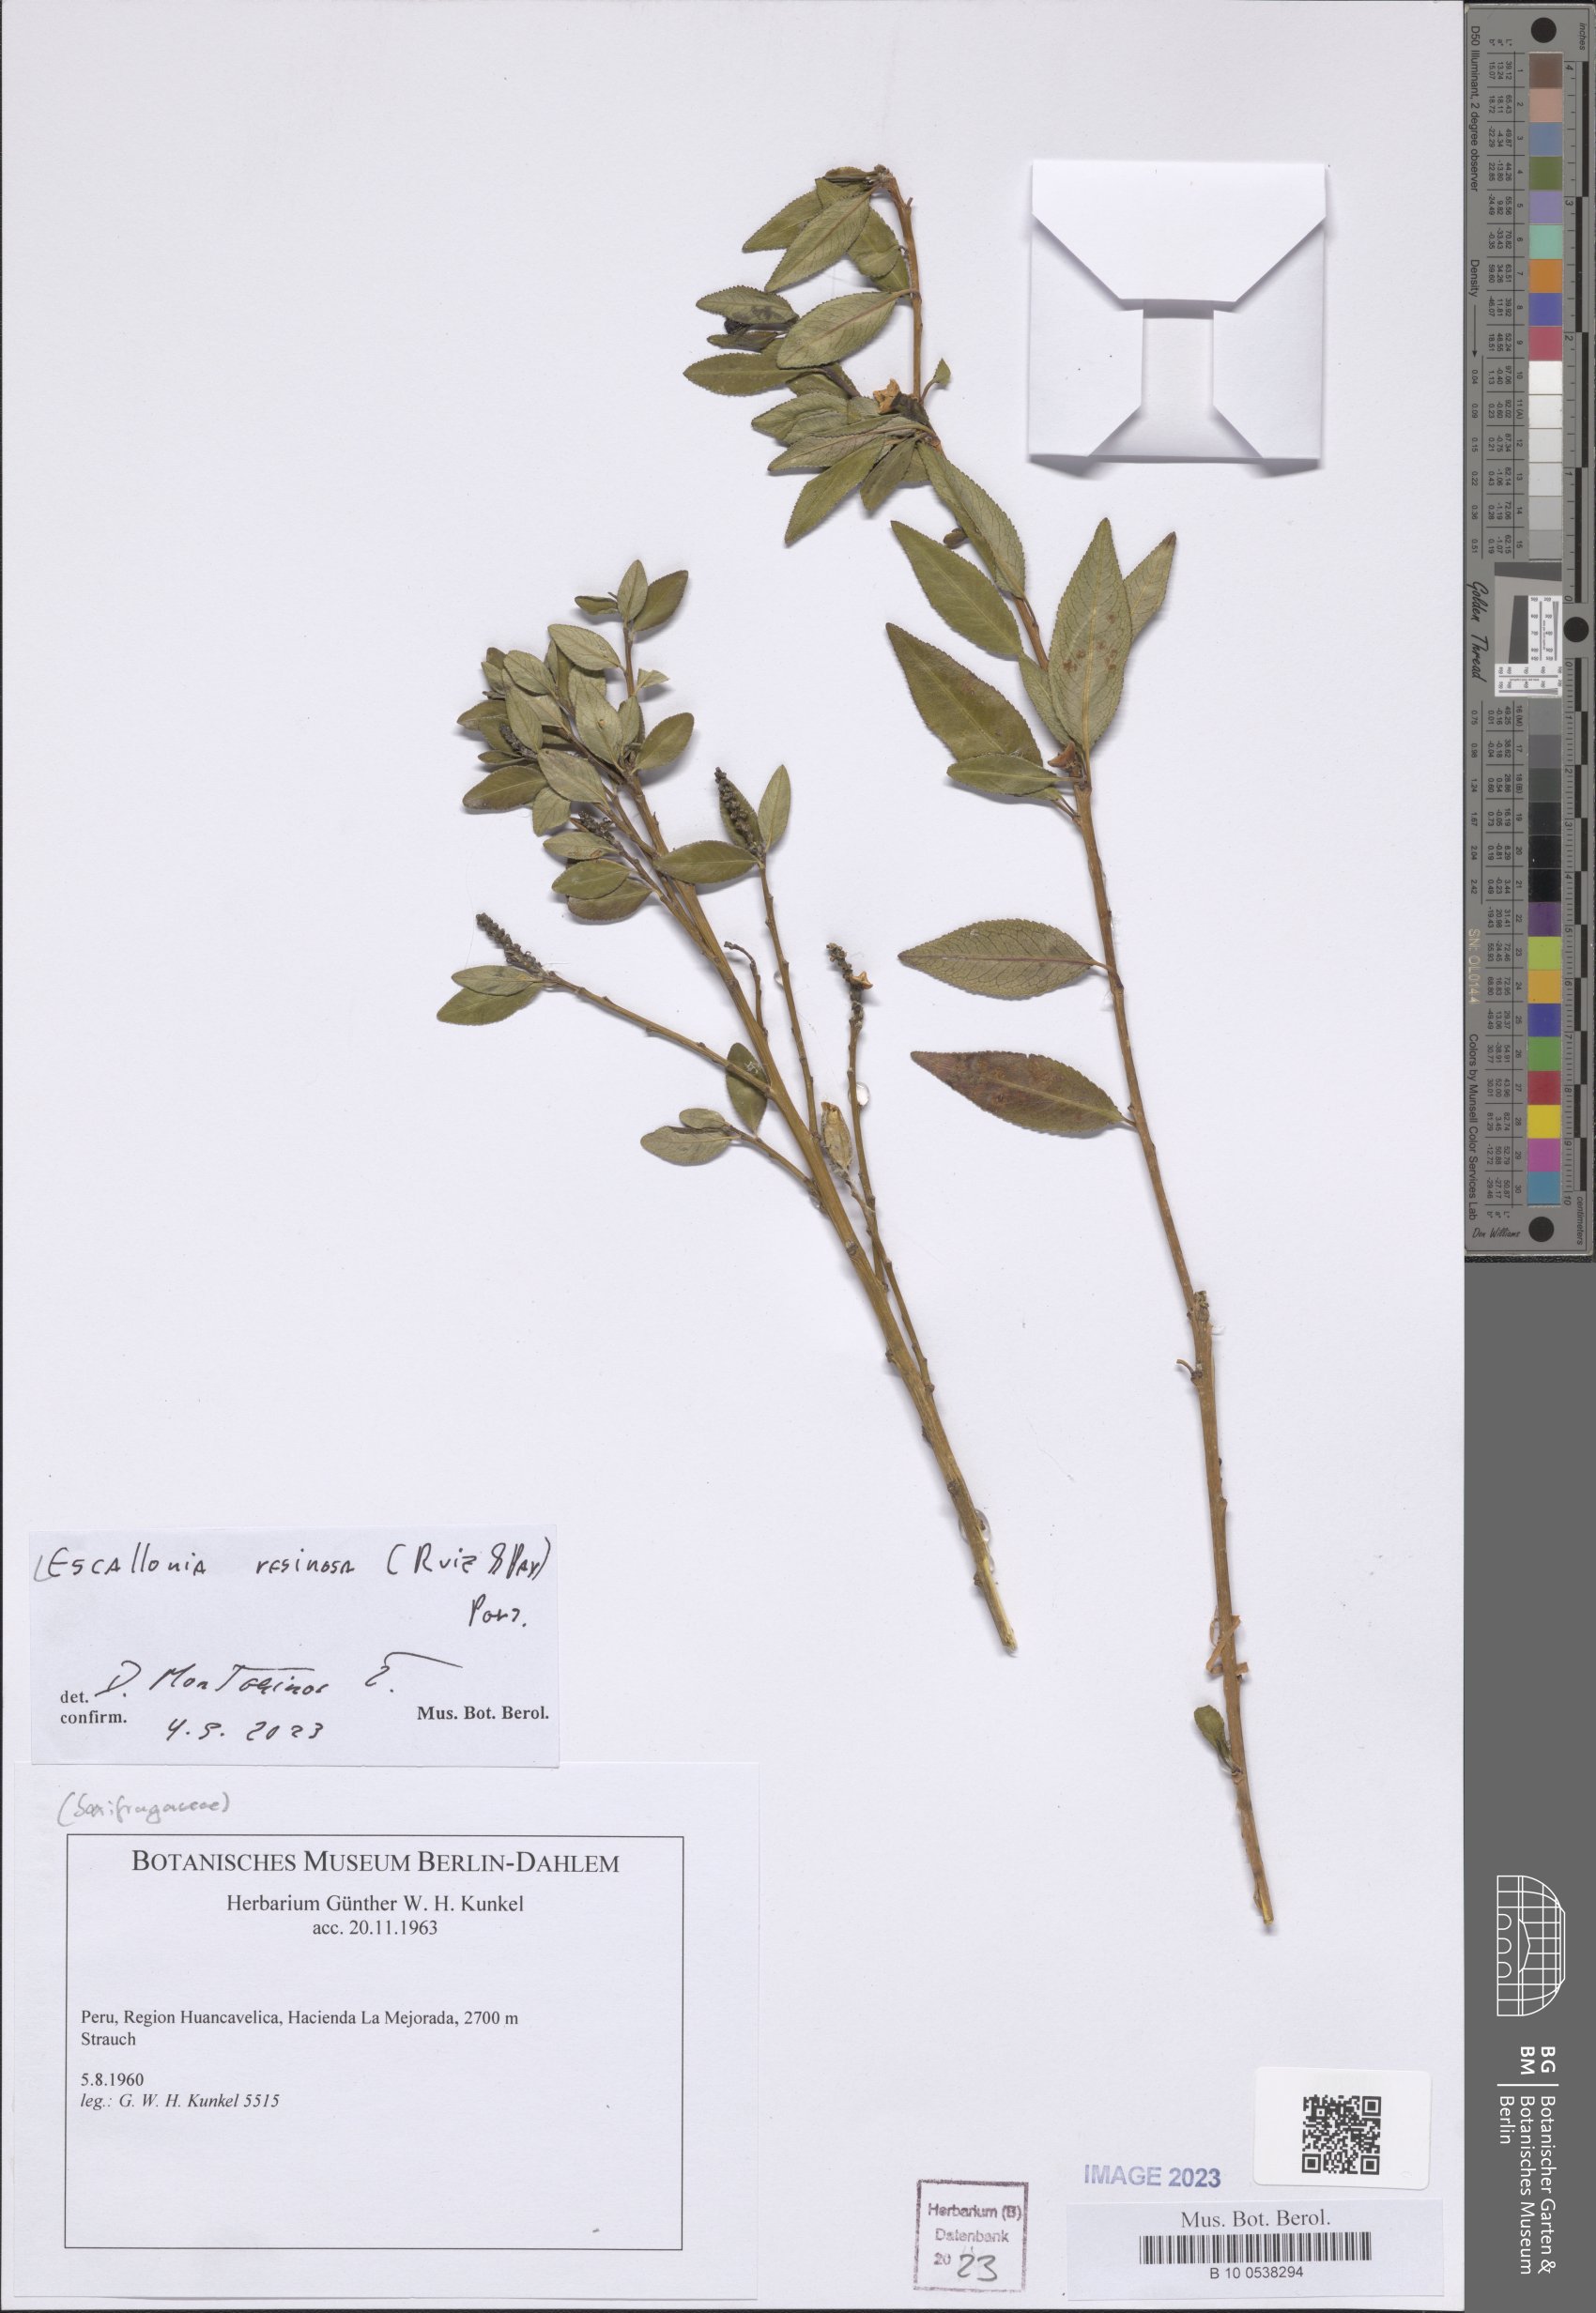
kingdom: Plantae
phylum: Tracheophyta
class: Magnoliopsida
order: Escalloniales
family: Escalloniaceae
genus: Escallonia
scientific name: Escallonia resinosa
